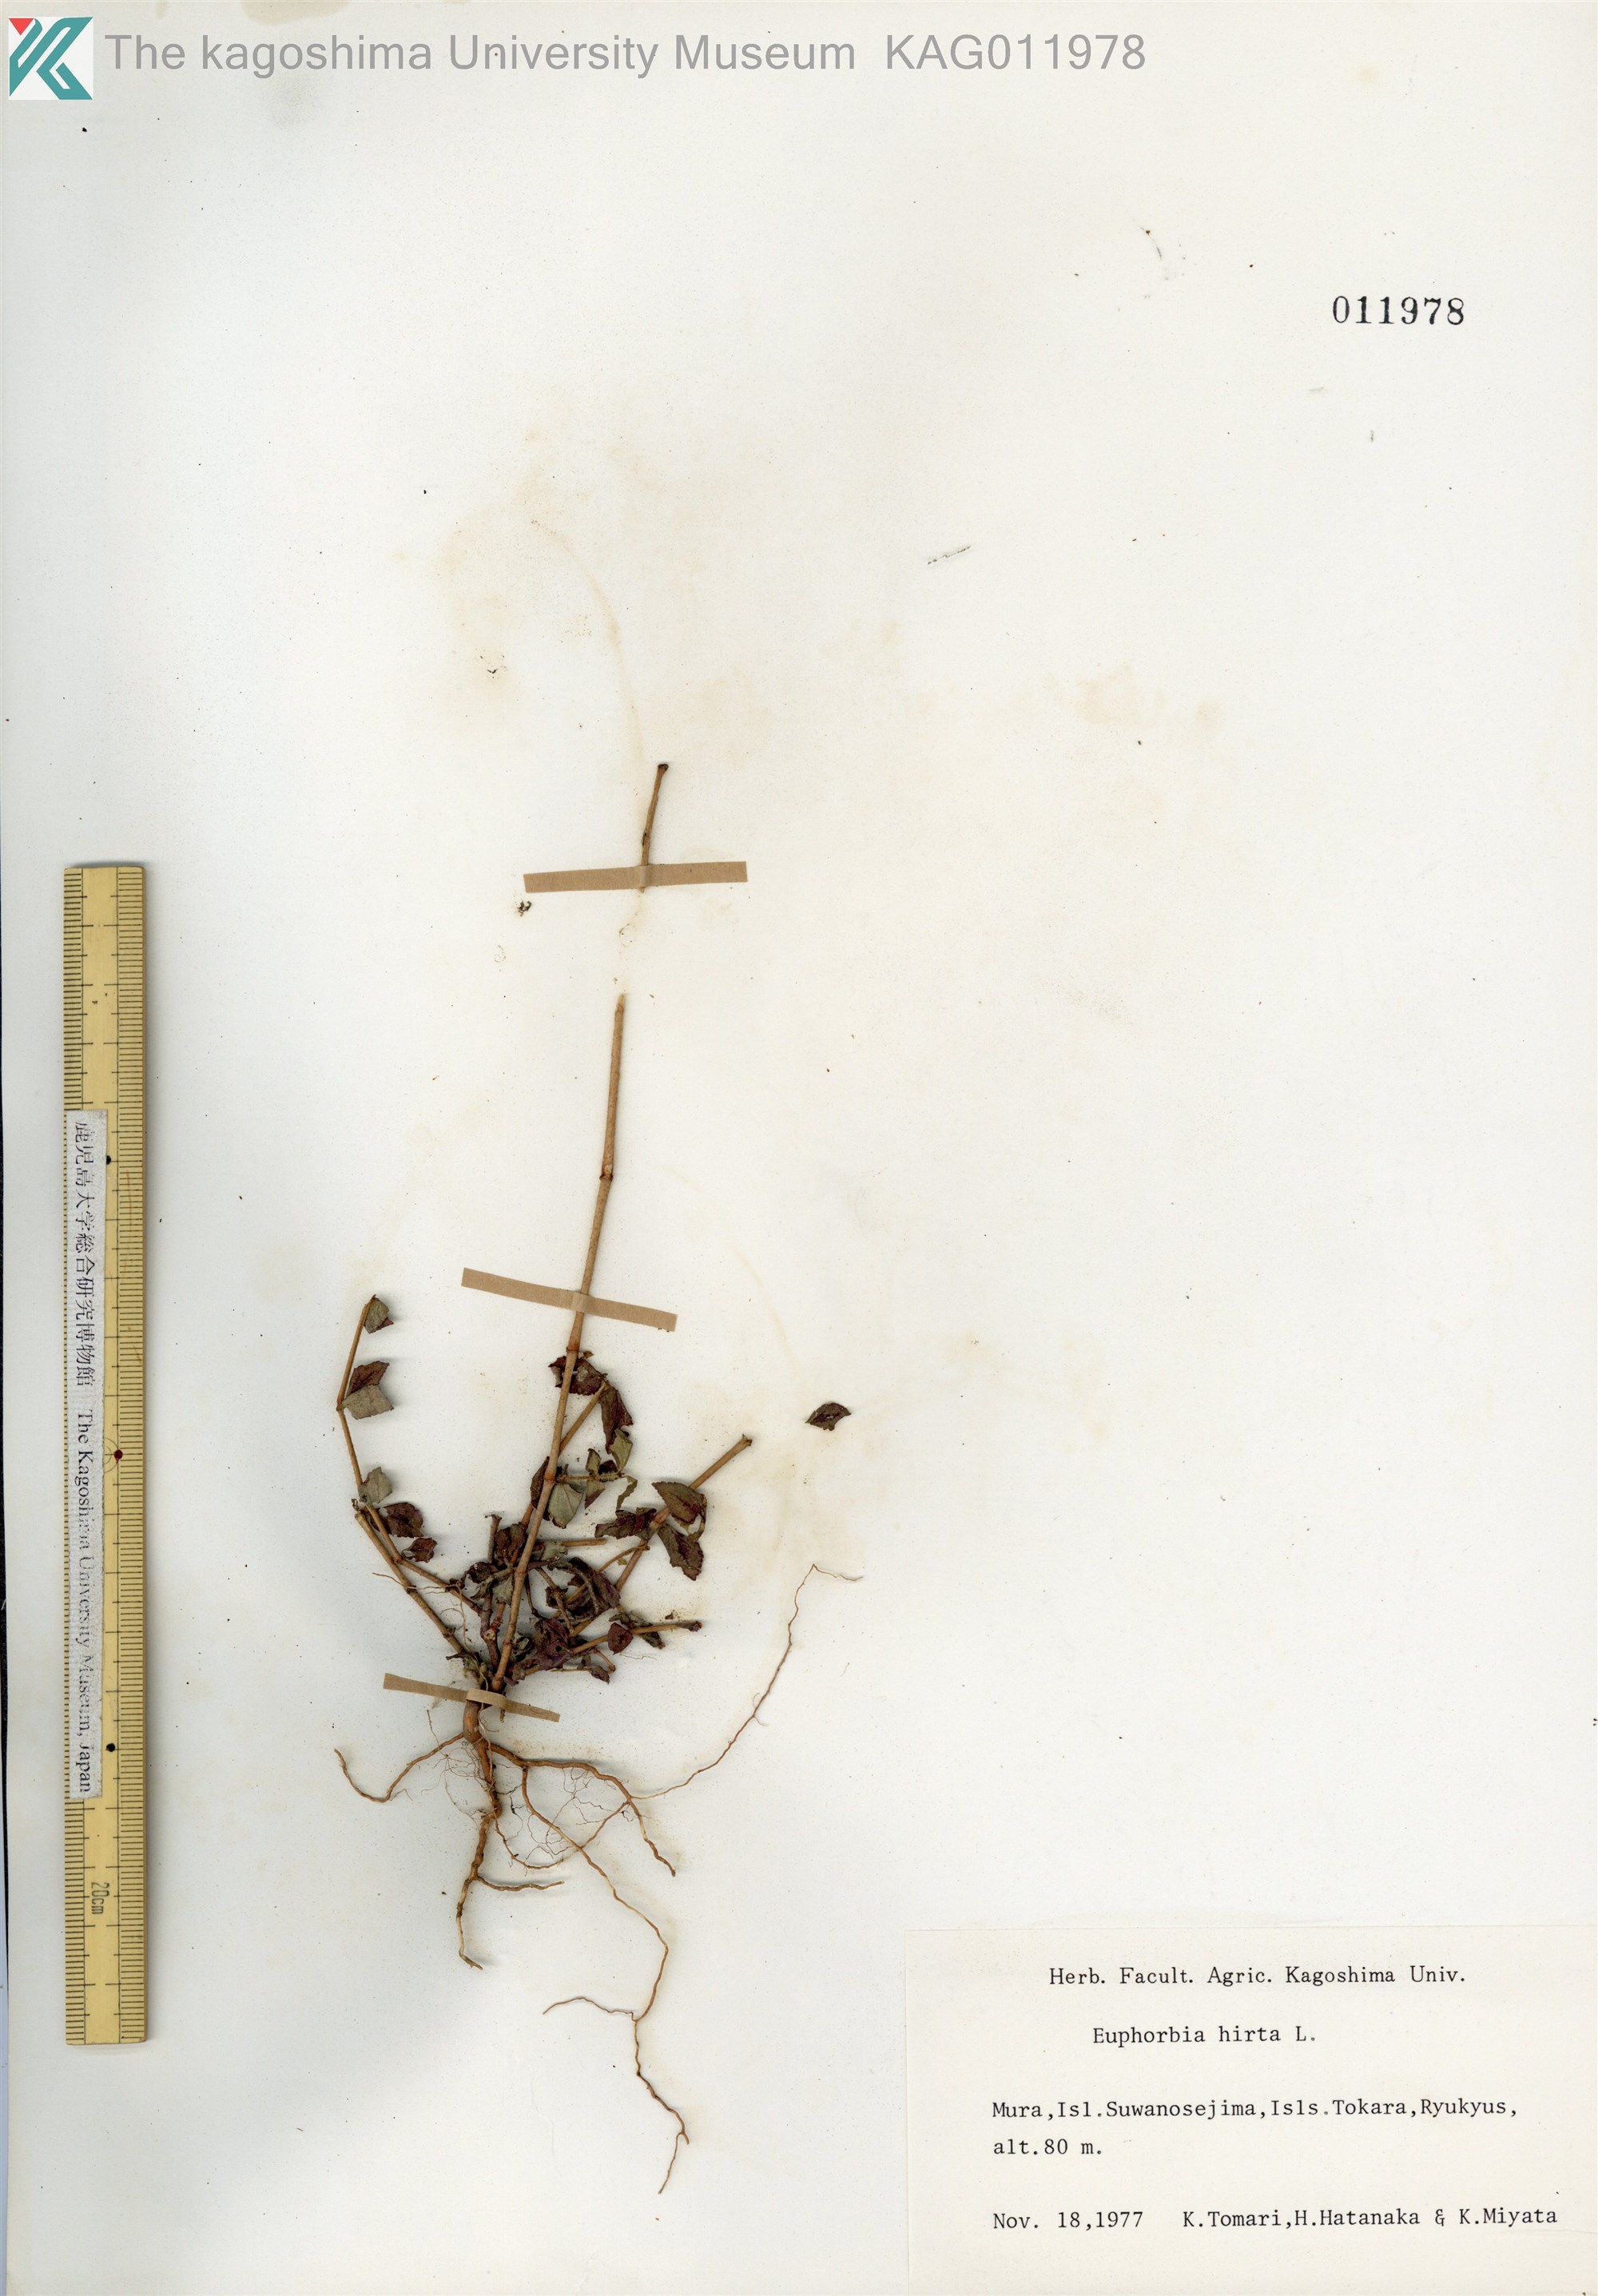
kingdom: Plantae
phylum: Tracheophyta
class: Magnoliopsida
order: Malpighiales
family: Euphorbiaceae
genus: Euphorbia
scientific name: Euphorbia hirta
